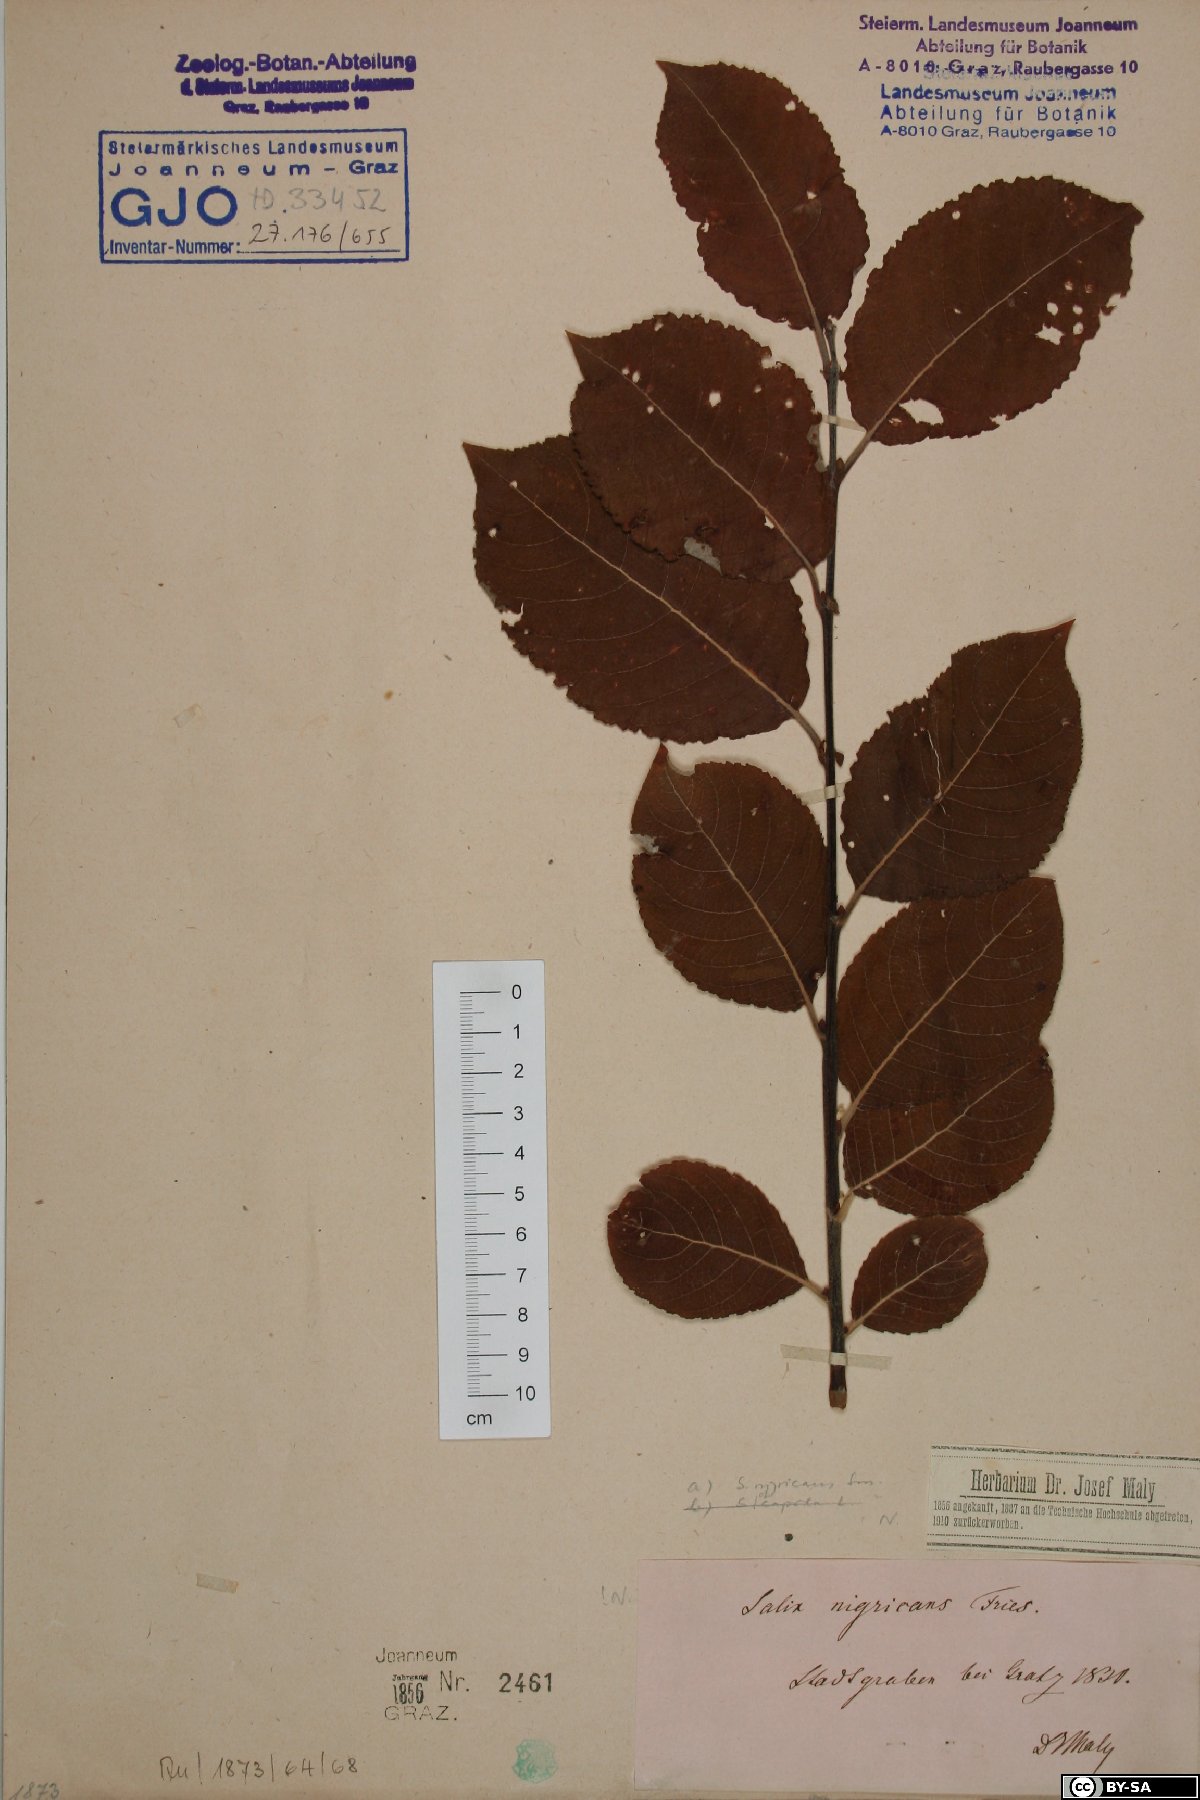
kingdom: Plantae
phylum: Tracheophyta
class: Magnoliopsida
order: Malpighiales
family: Salicaceae
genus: Salix
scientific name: Salix myrsinifolia
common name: Dark-leaved willow
